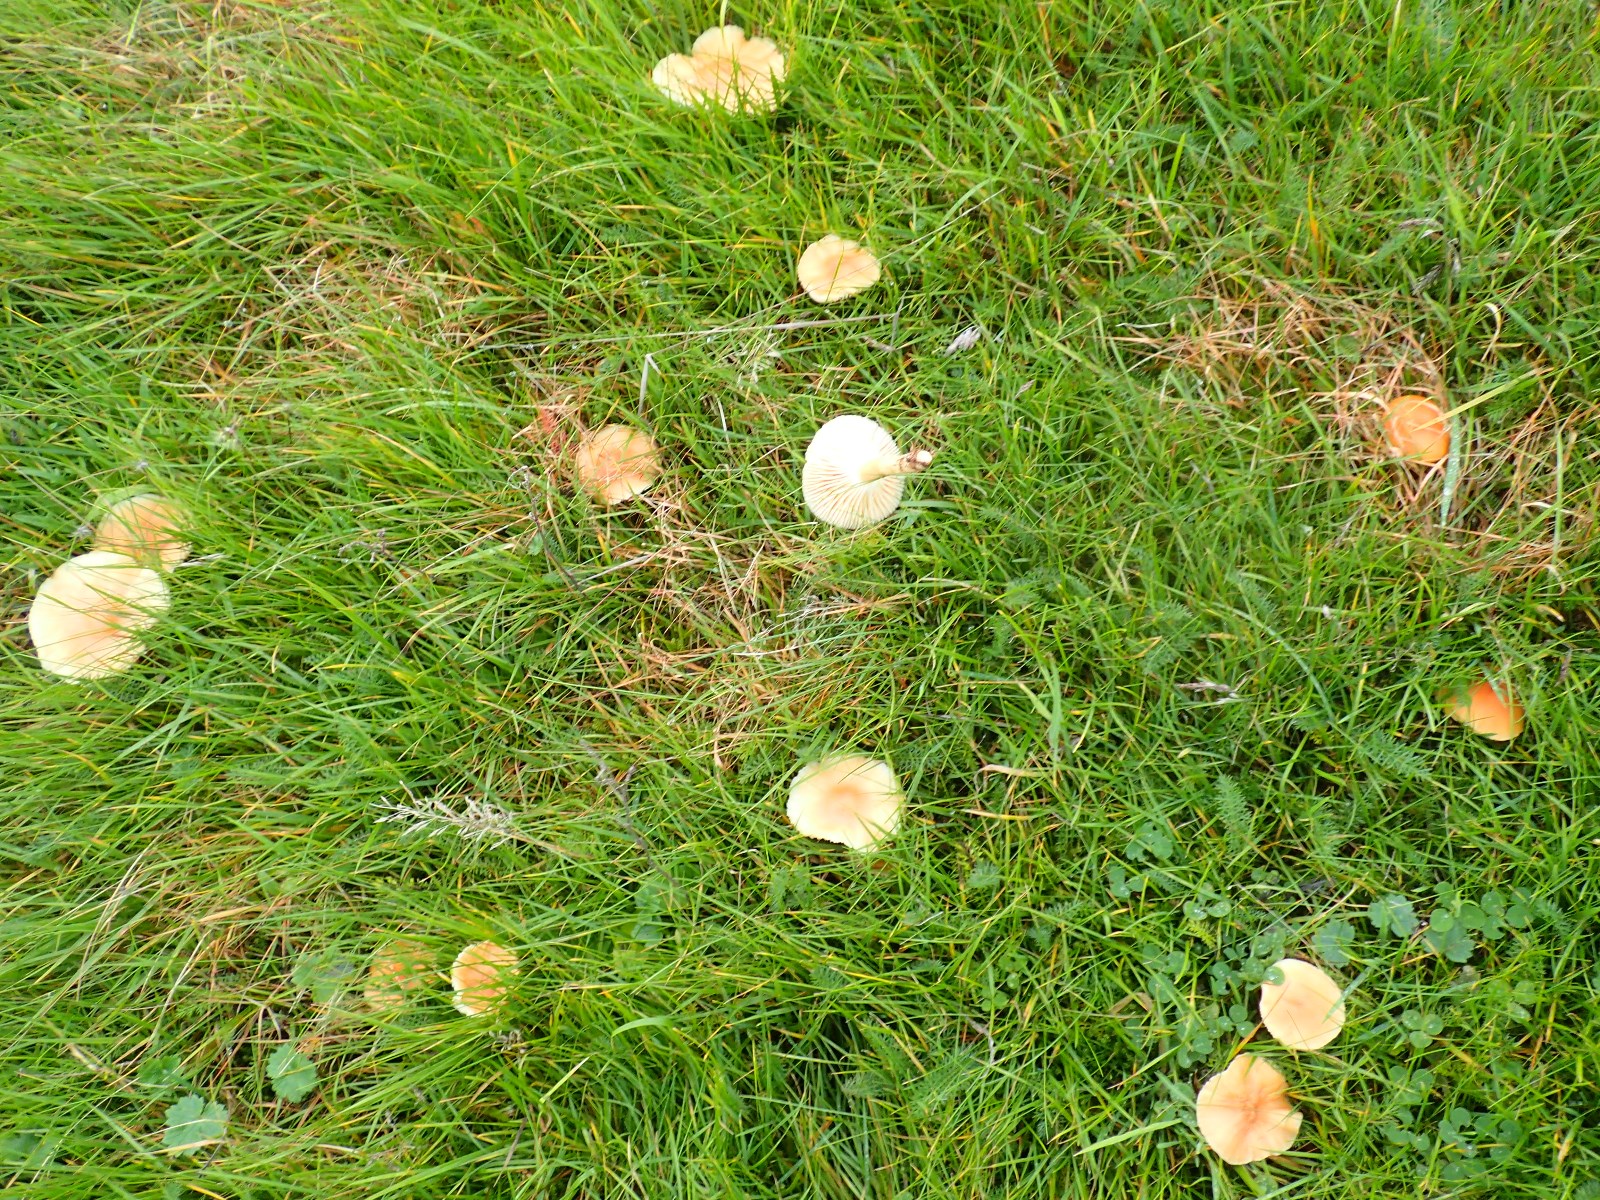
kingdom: Fungi
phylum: Basidiomycota
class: Agaricomycetes
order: Agaricales
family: Hygrophoraceae
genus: Cuphophyllus
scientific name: Cuphophyllus pratensis
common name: eng-vokshat
